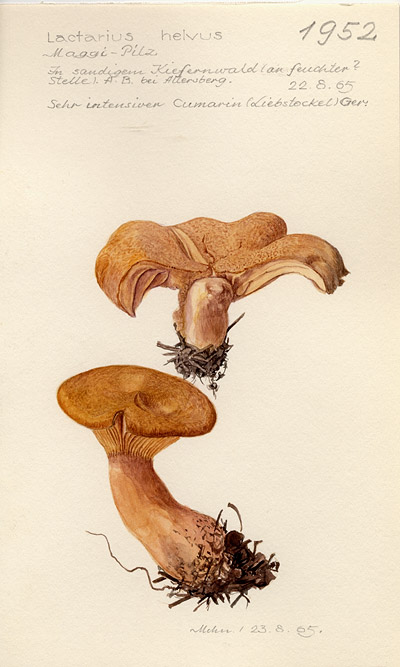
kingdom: Fungi
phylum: Basidiomycota
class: Agaricomycetes
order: Russulales
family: Russulaceae
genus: Lactarius
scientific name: Lactarius helvus
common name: Fenugreek milkcap
